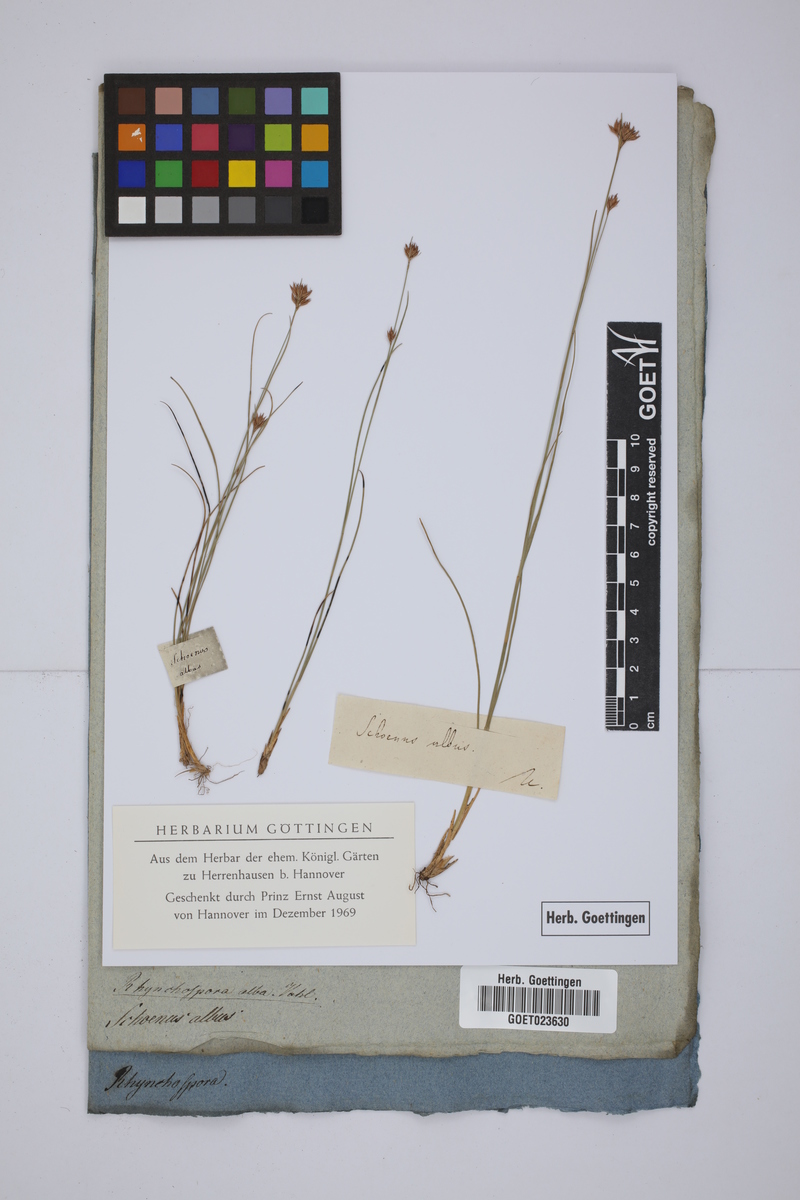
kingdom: Plantae
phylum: Tracheophyta
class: Liliopsida
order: Poales
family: Cyperaceae
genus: Rhynchospora
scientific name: Rhynchospora alba
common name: White beak-sedge
